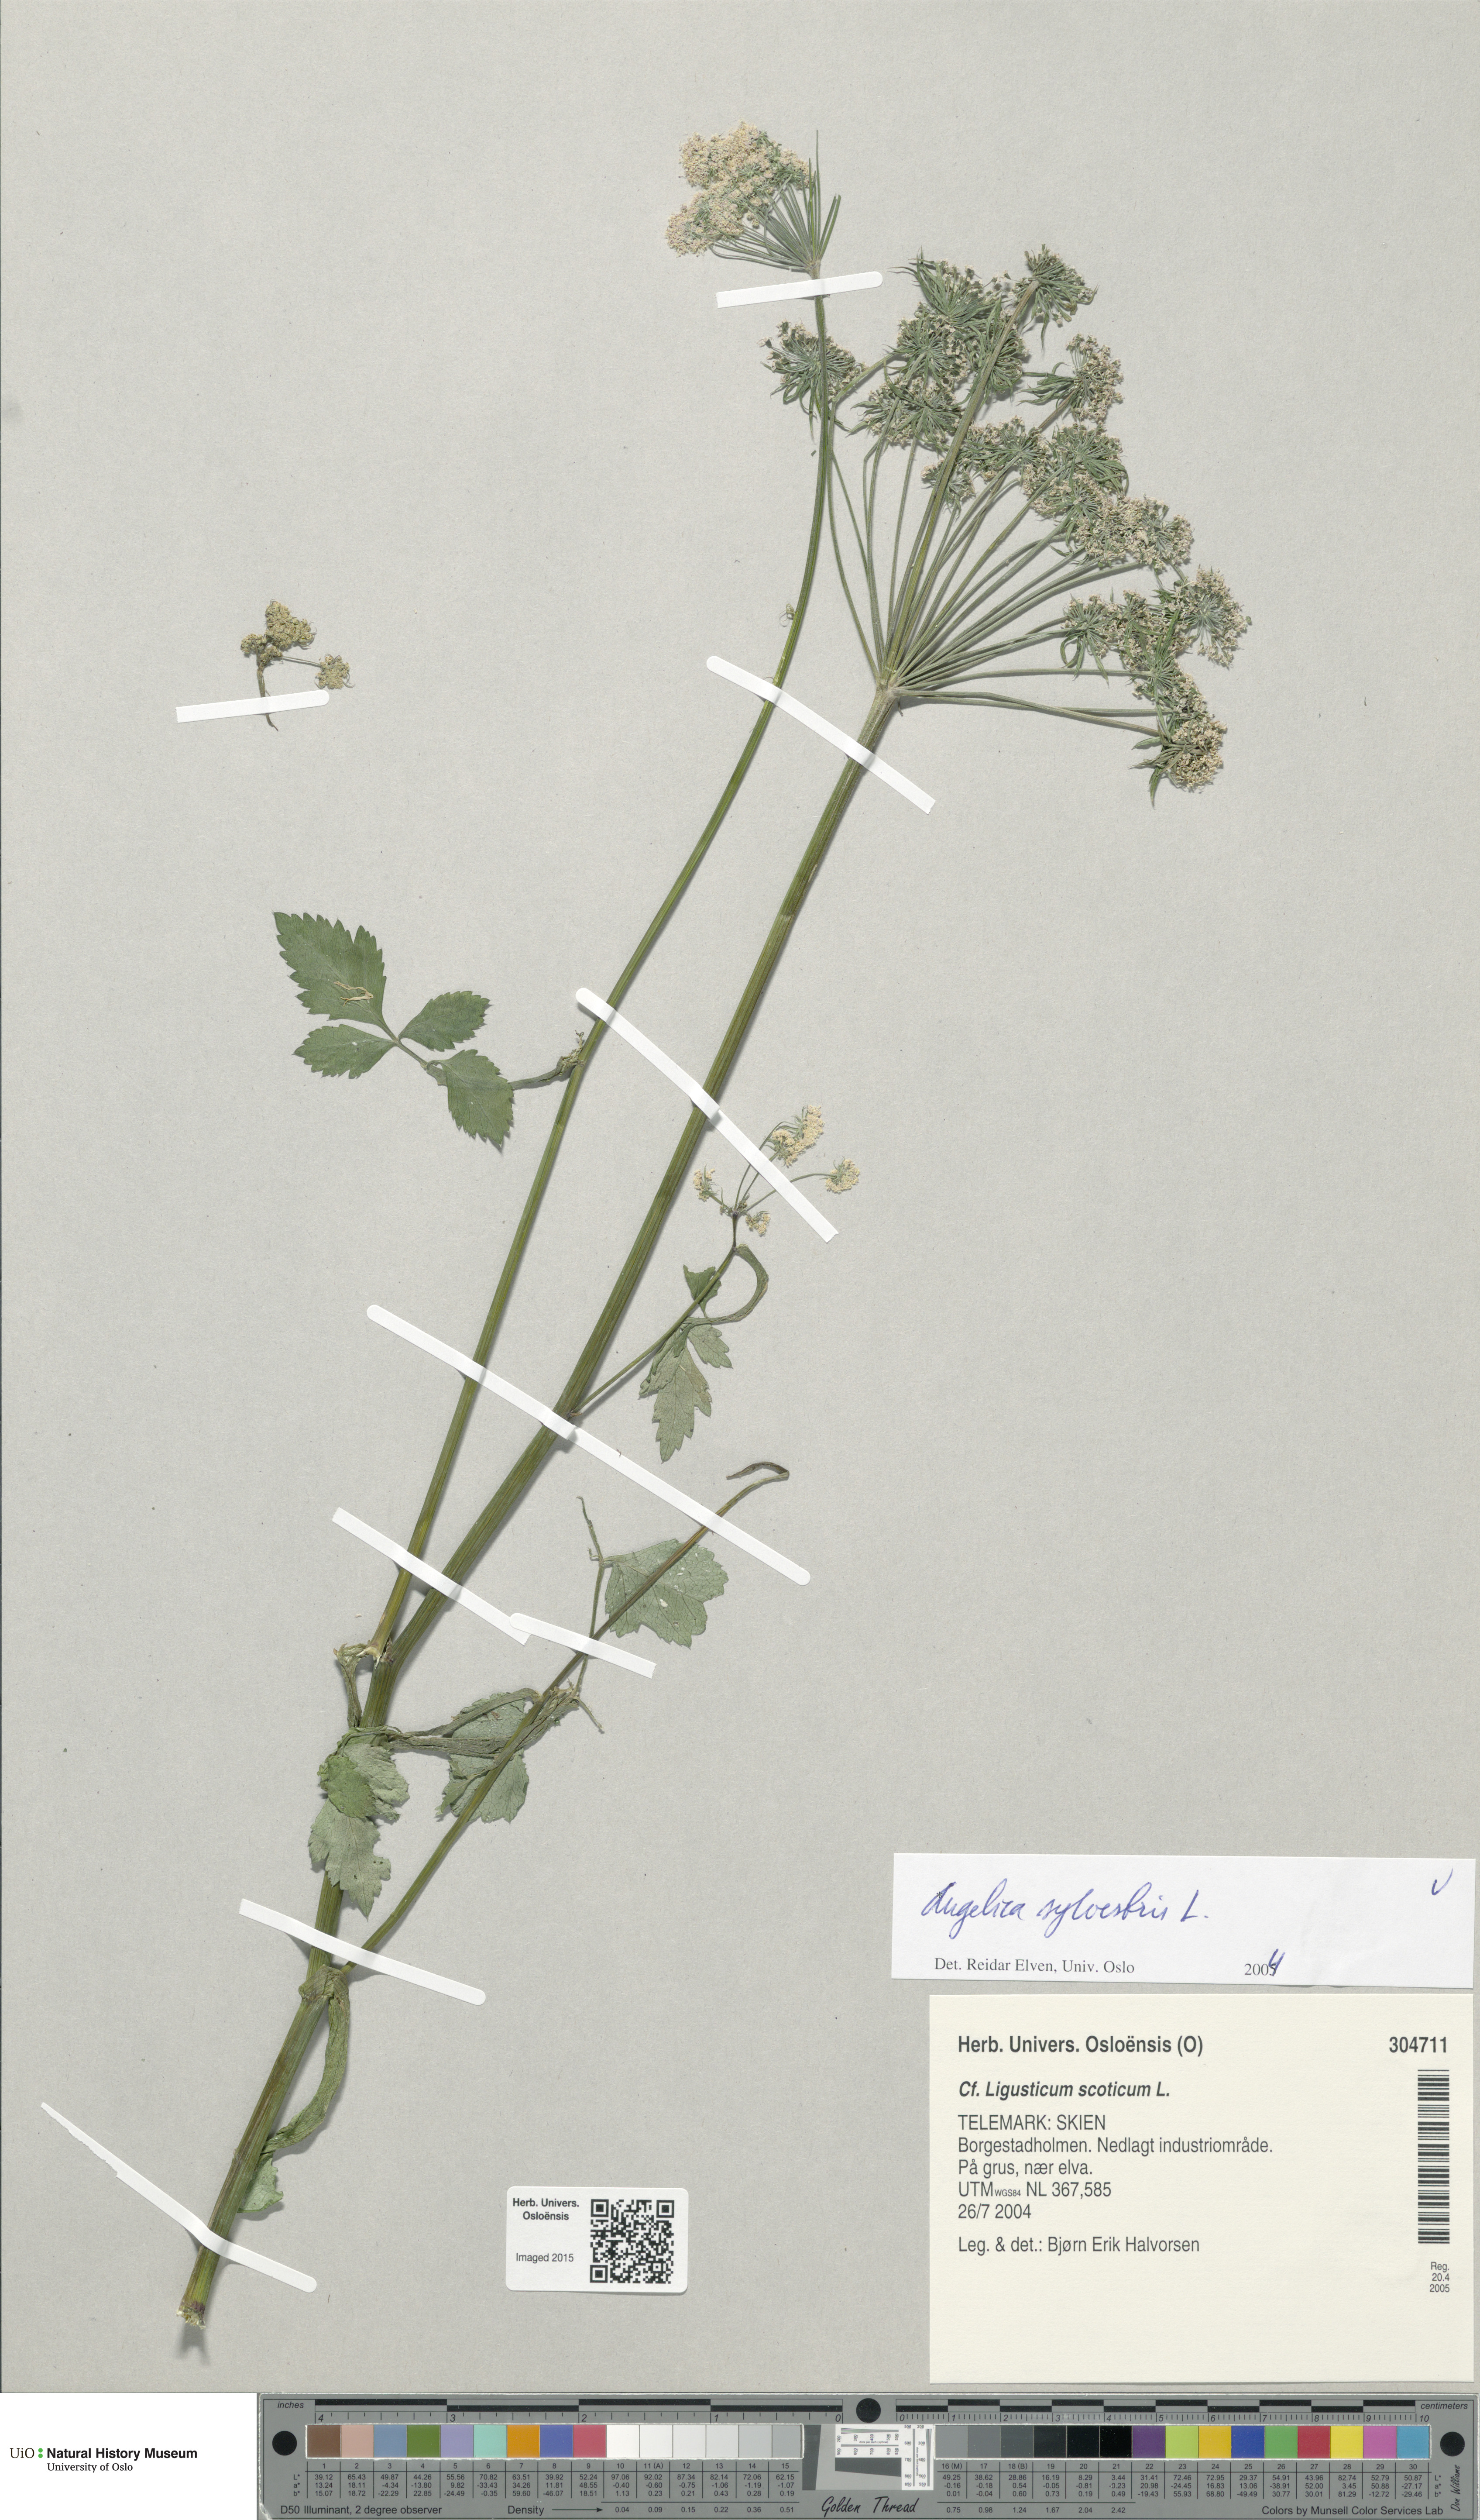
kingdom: Plantae
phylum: Tracheophyta
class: Magnoliopsida
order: Apiales
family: Apiaceae
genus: Angelica
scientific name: Angelica sylvestris
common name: Wild angelica
